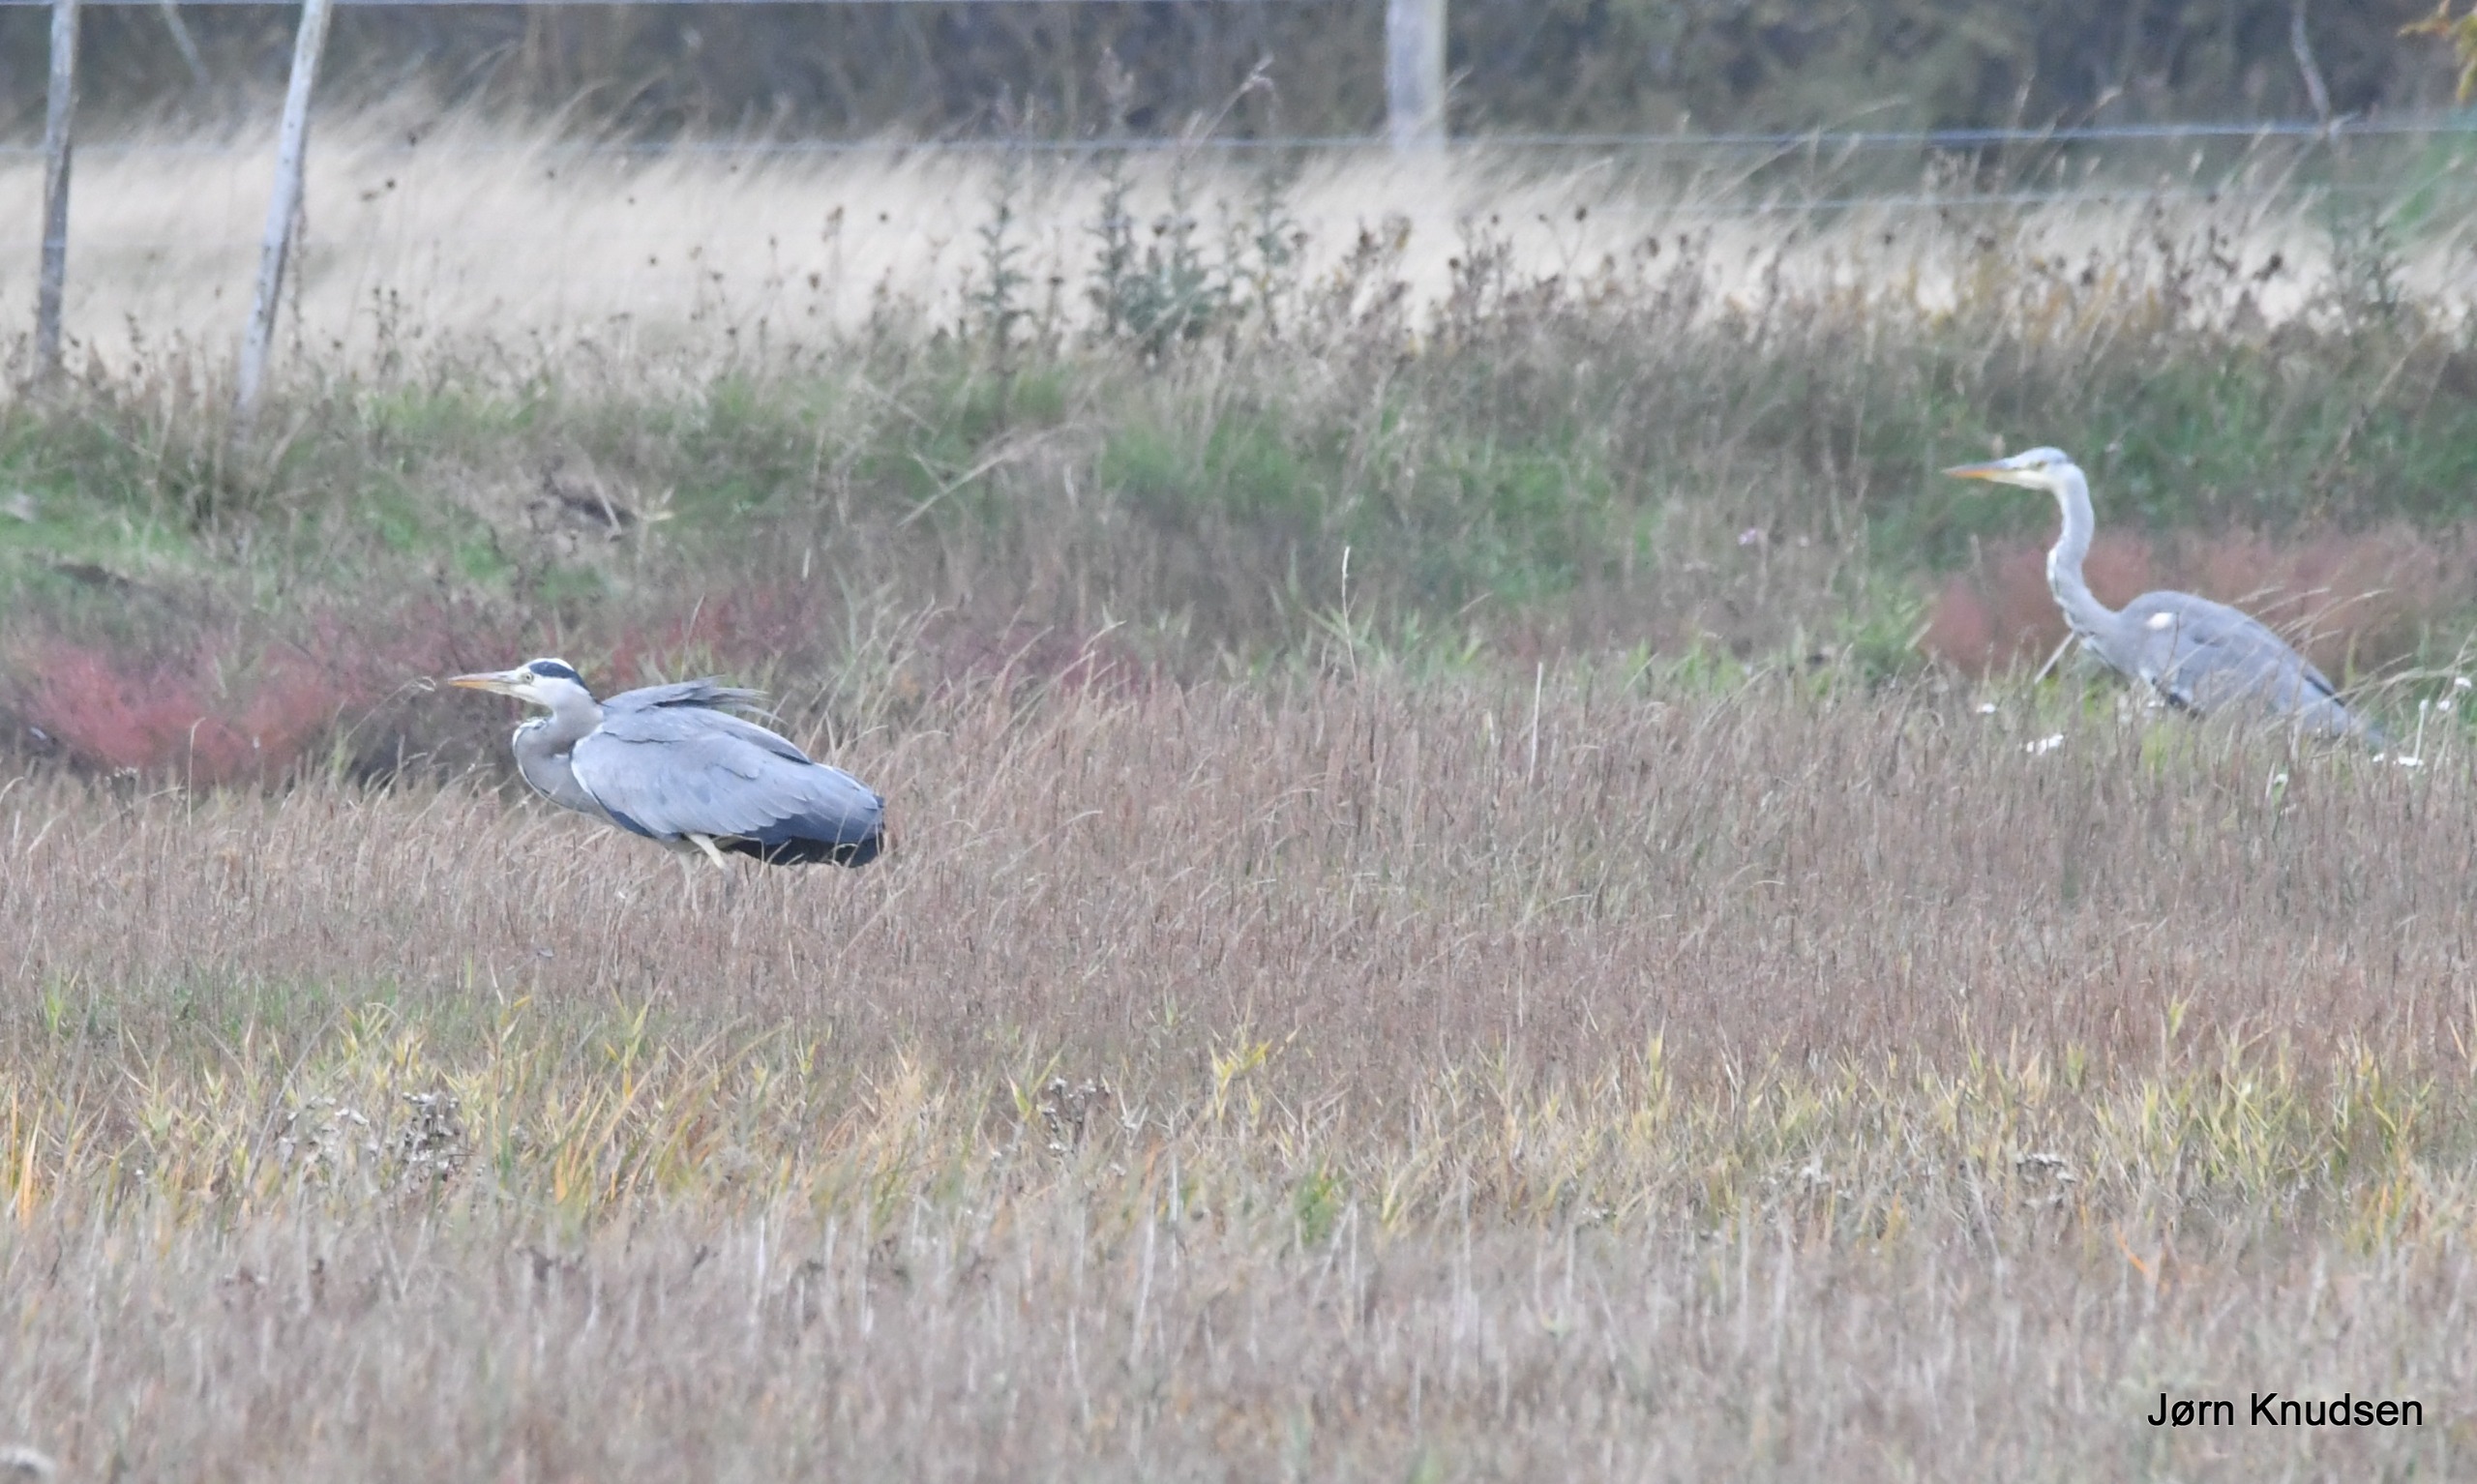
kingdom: Animalia
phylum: Chordata
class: Aves
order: Pelecaniformes
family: Ardeidae
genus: Ardea
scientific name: Ardea cinerea
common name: Fiskehejre
